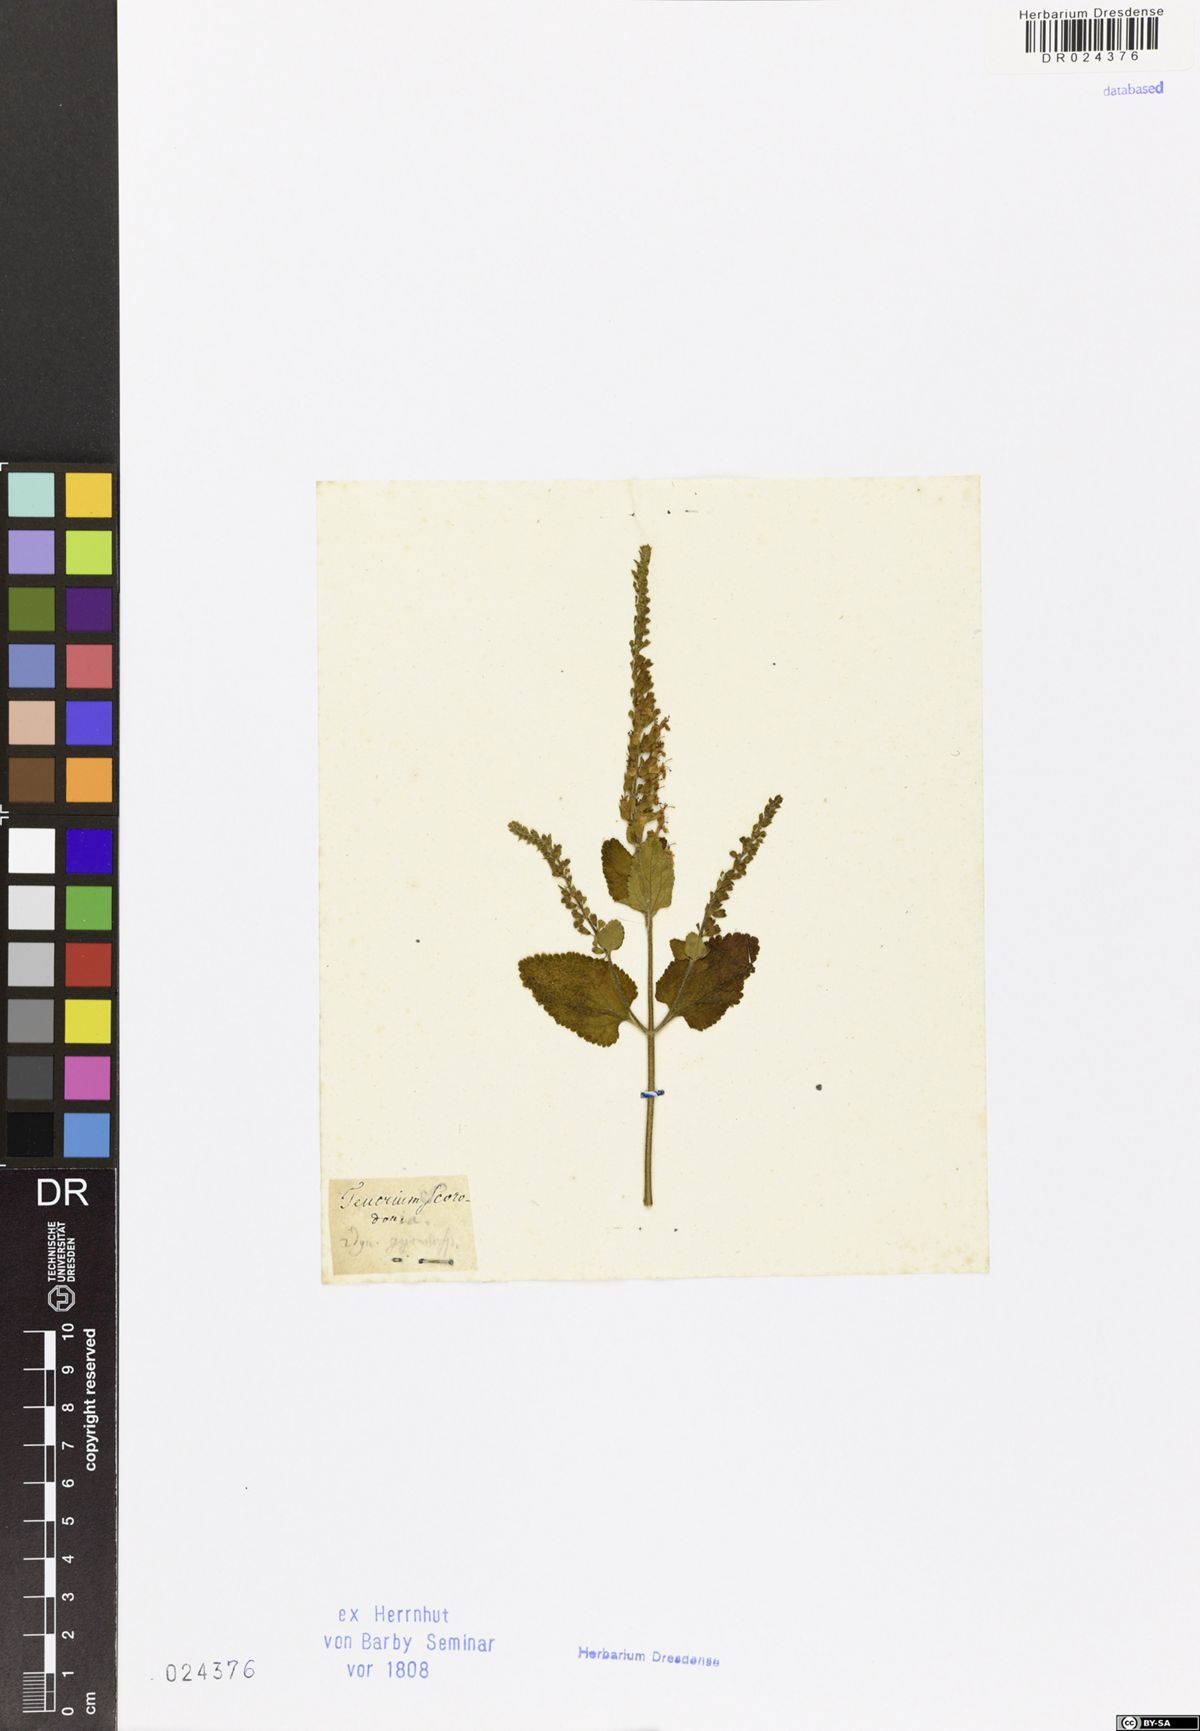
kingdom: Plantae
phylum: Tracheophyta
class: Magnoliopsida
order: Lamiales
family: Lamiaceae
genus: Teucrium
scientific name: Teucrium scorodonia
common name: Woodland germander
